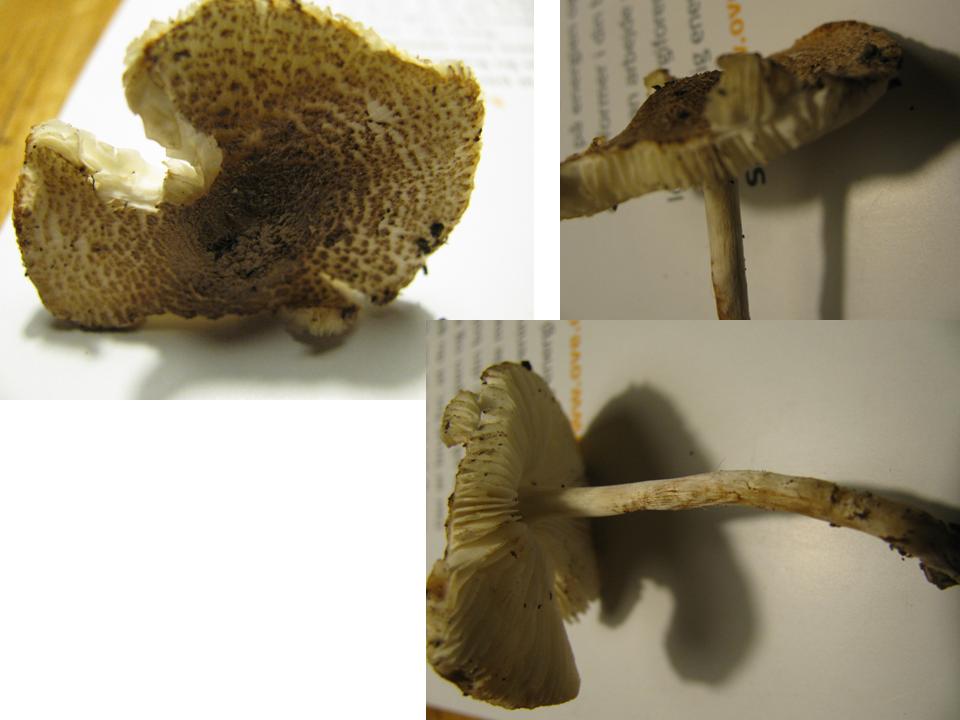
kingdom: Fungi
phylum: Basidiomycota
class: Agaricomycetes
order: Agaricales
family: Agaricaceae
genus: Lepiota
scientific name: Lepiota subgracilis
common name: elegant parasolhat
